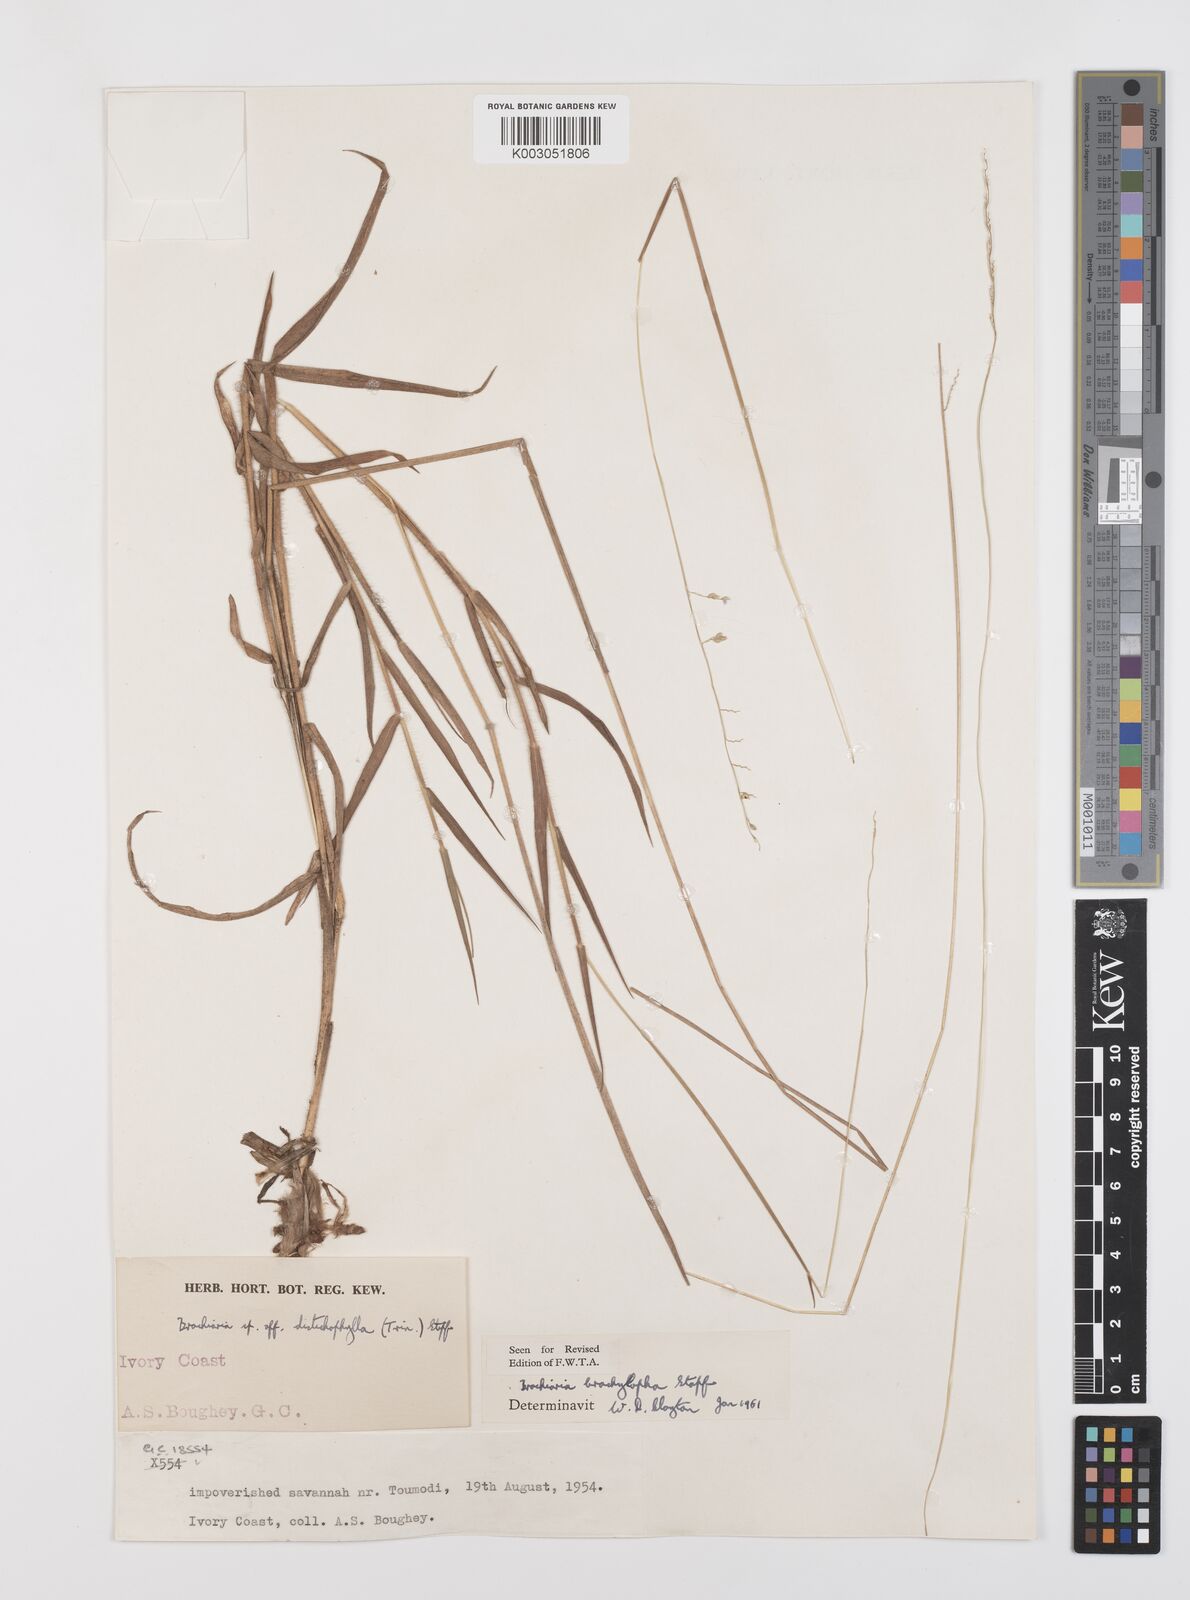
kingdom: Plantae
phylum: Tracheophyta
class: Liliopsida
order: Poales
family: Poaceae
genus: Urochloa
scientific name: Urochloa serrata
